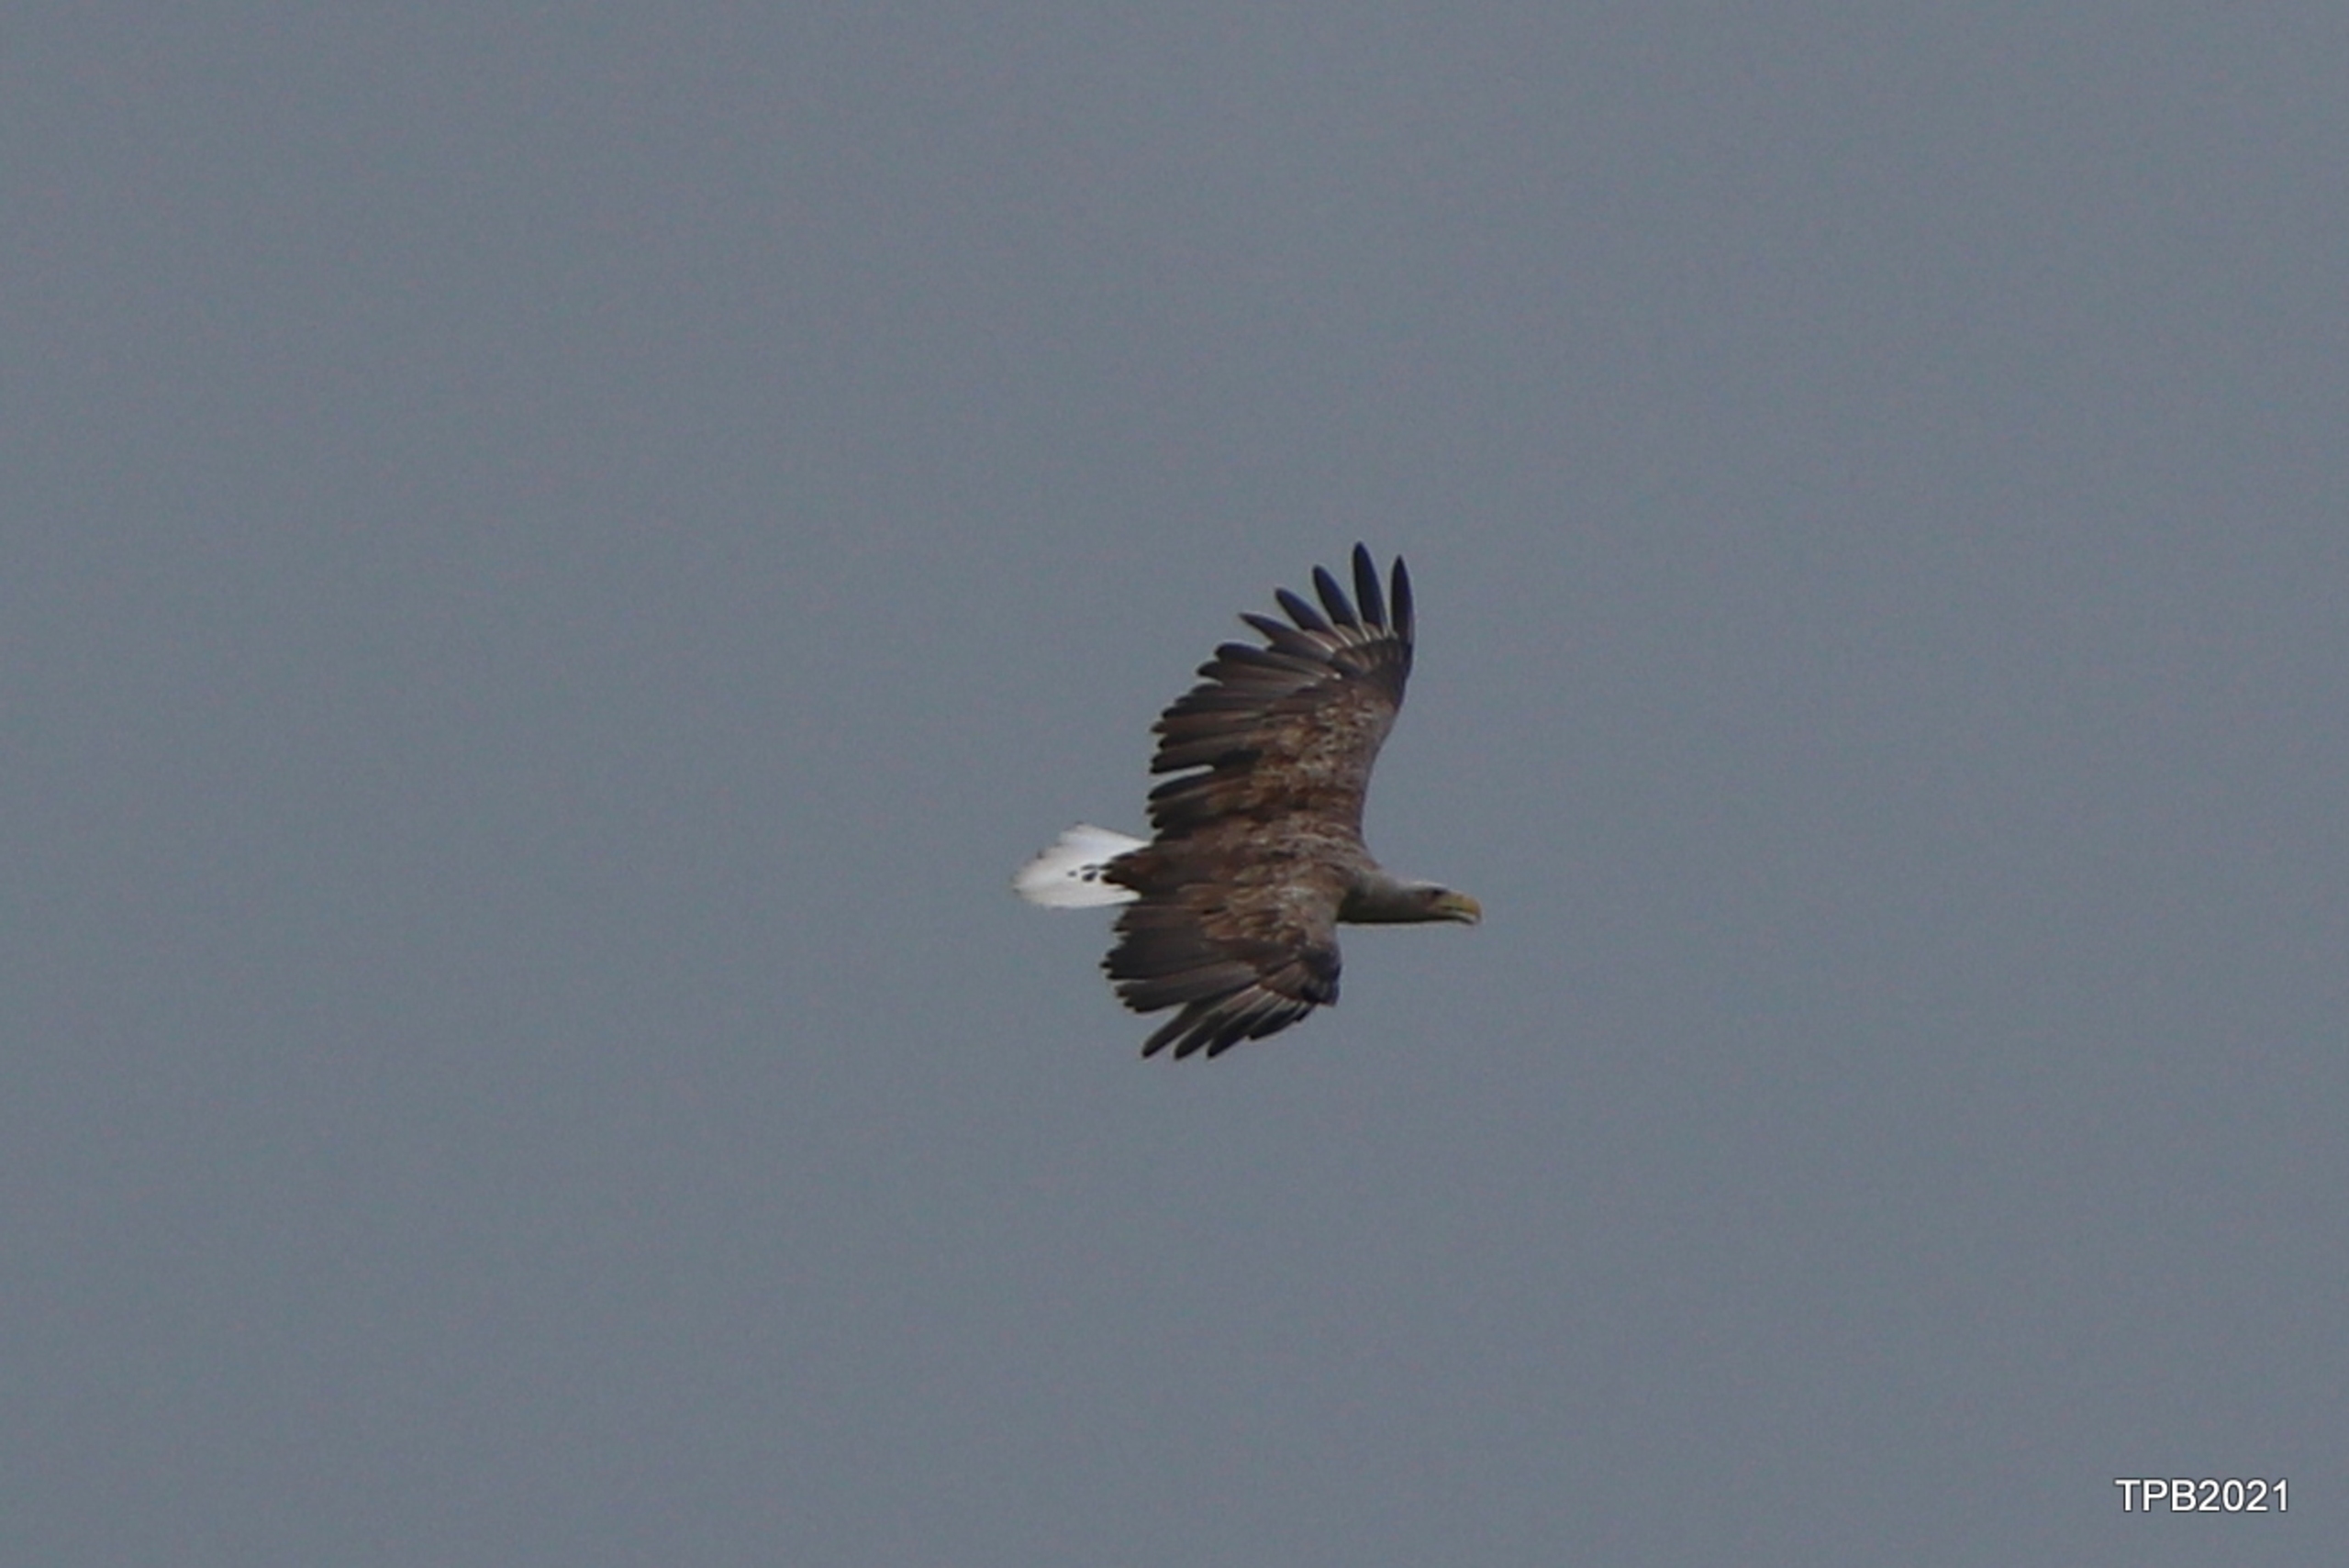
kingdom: Animalia
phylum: Chordata
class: Aves
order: Accipitriformes
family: Accipitridae
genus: Haliaeetus
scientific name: Haliaeetus albicilla
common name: Havørn
